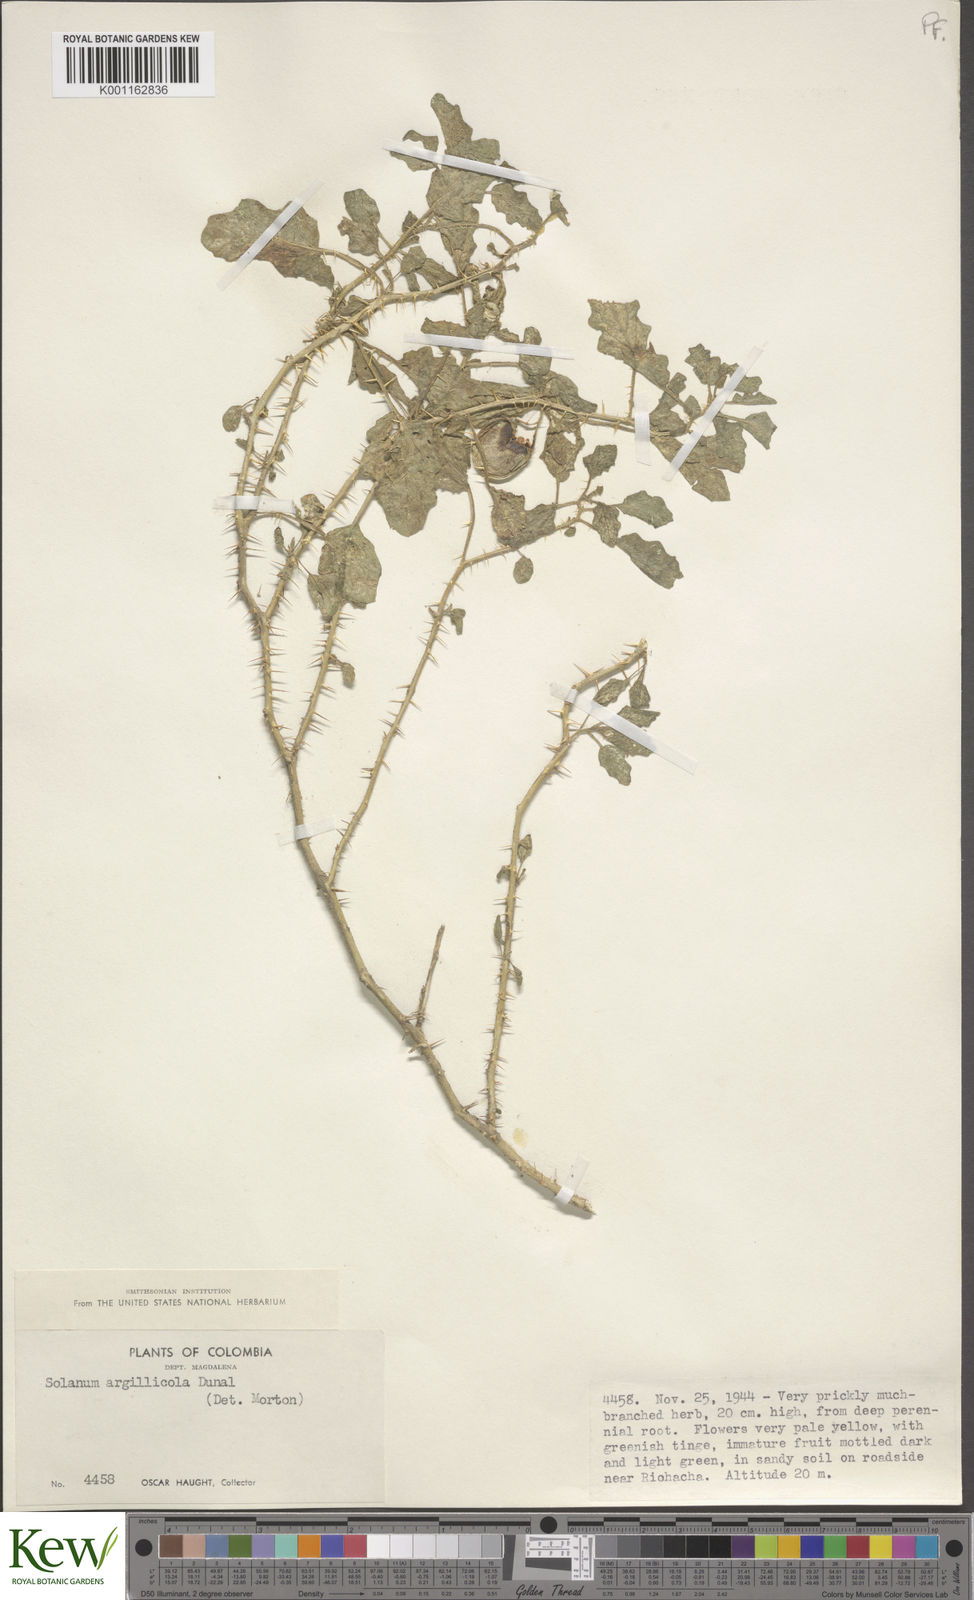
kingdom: Plantae
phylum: Tracheophyta
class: Magnoliopsida
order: Solanales
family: Solanaceae
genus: Solanum
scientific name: Solanum agrarium
